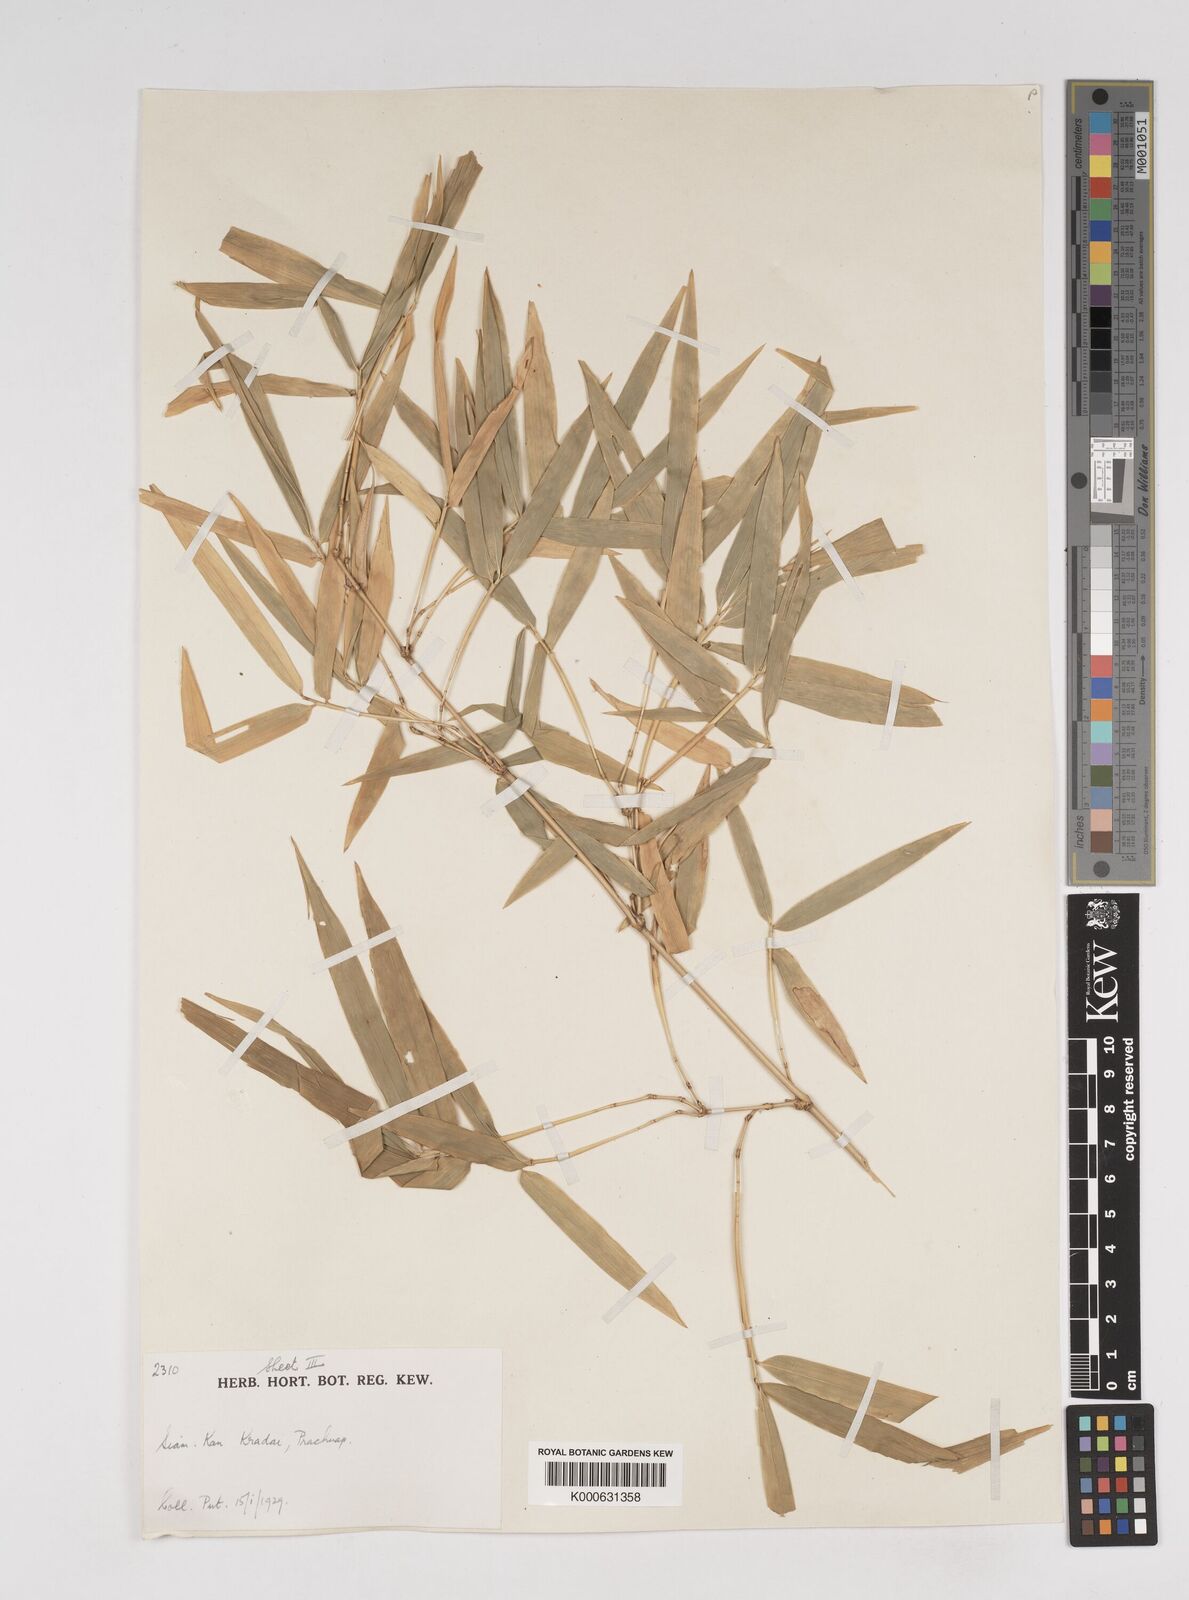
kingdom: Plantae
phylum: Tracheophyta
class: Liliopsida
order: Poales
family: Poaceae
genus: Dendrocalamus
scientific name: Dendrocalamus membranaceus
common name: White bamboo
